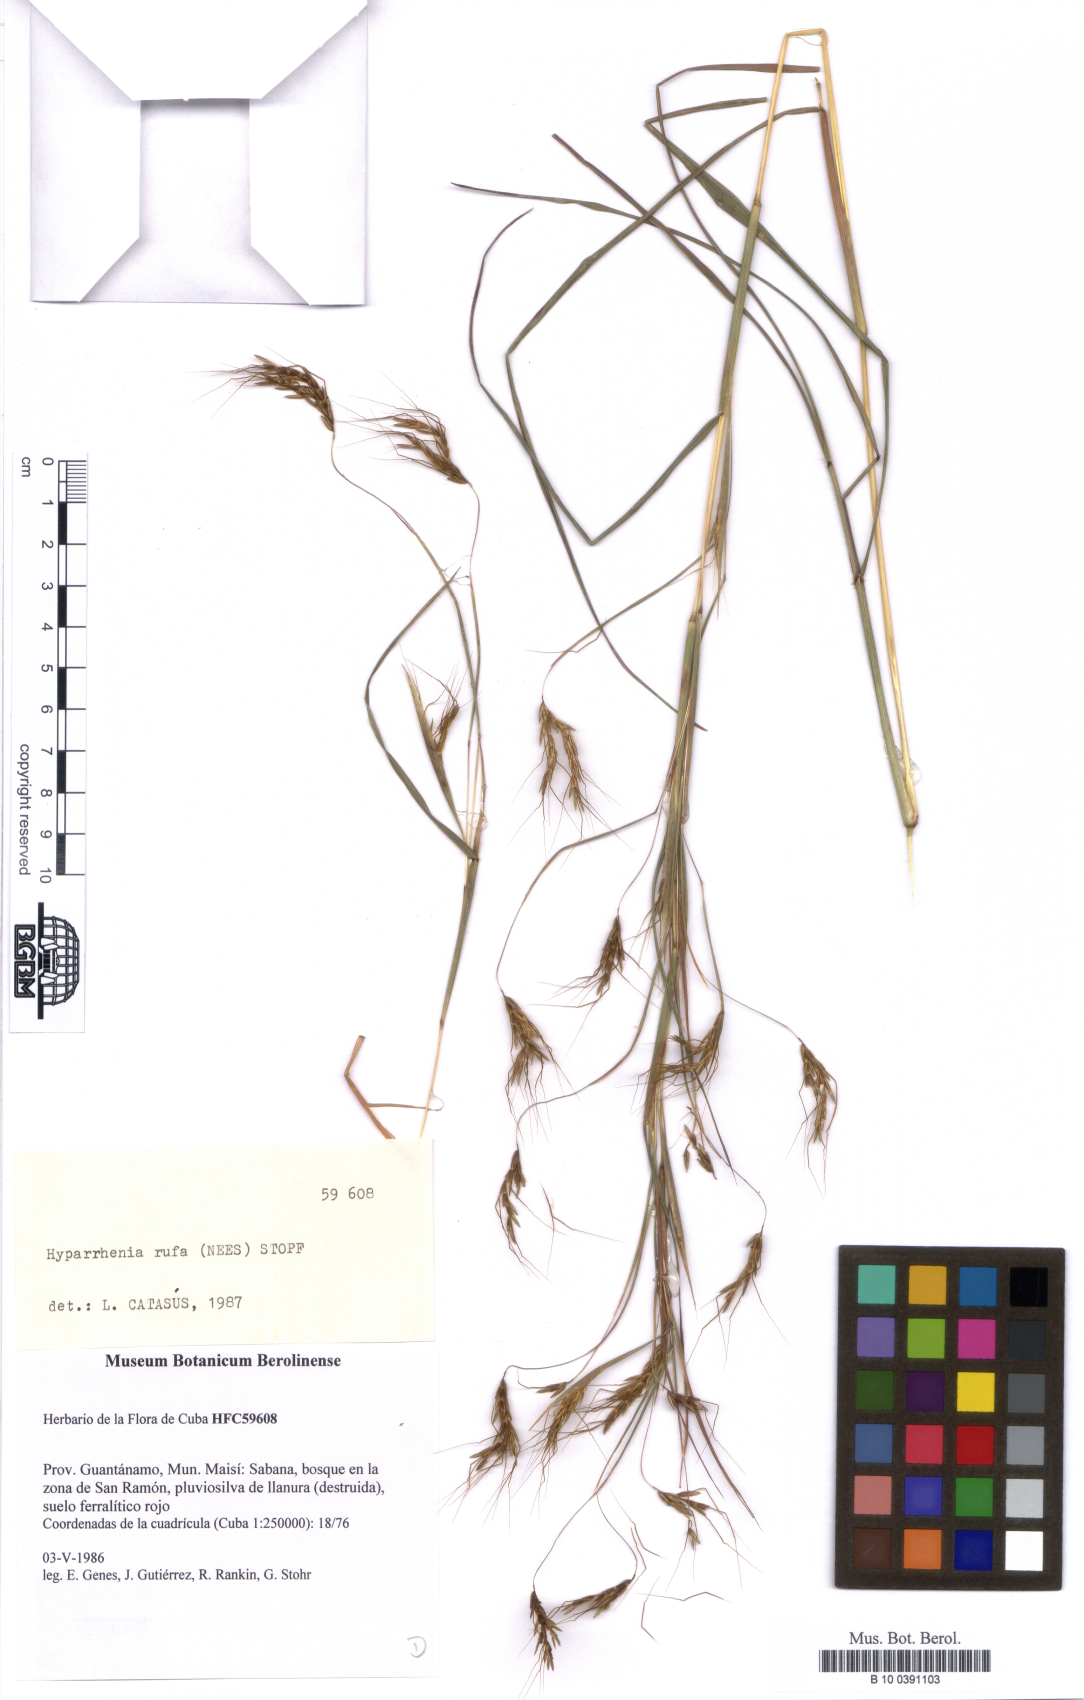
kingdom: Plantae
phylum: Tracheophyta
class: Liliopsida
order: Poales
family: Poaceae
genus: Hyparrhenia
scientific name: Hyparrhenia rufa
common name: Jaraguagrass
